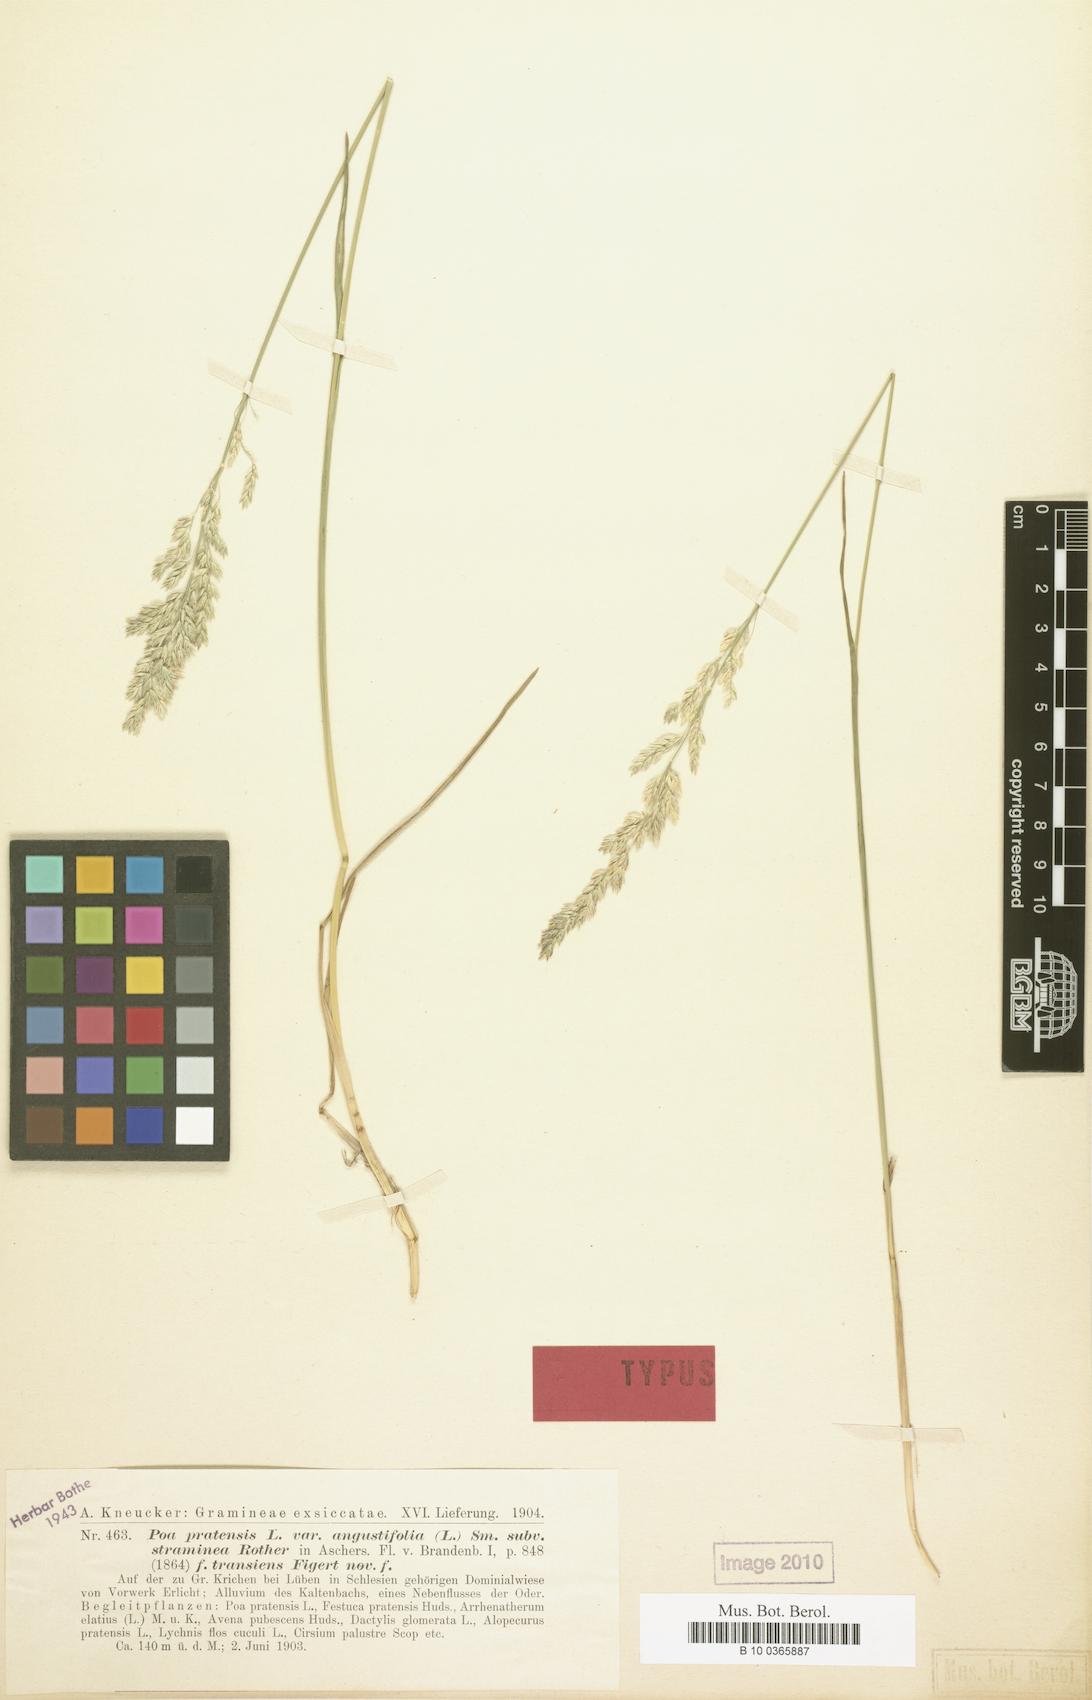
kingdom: Plantae
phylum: Tracheophyta
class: Liliopsida
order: Poales
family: Poaceae
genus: Poa
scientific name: Poa pratensis
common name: Kentucky bluegrass
